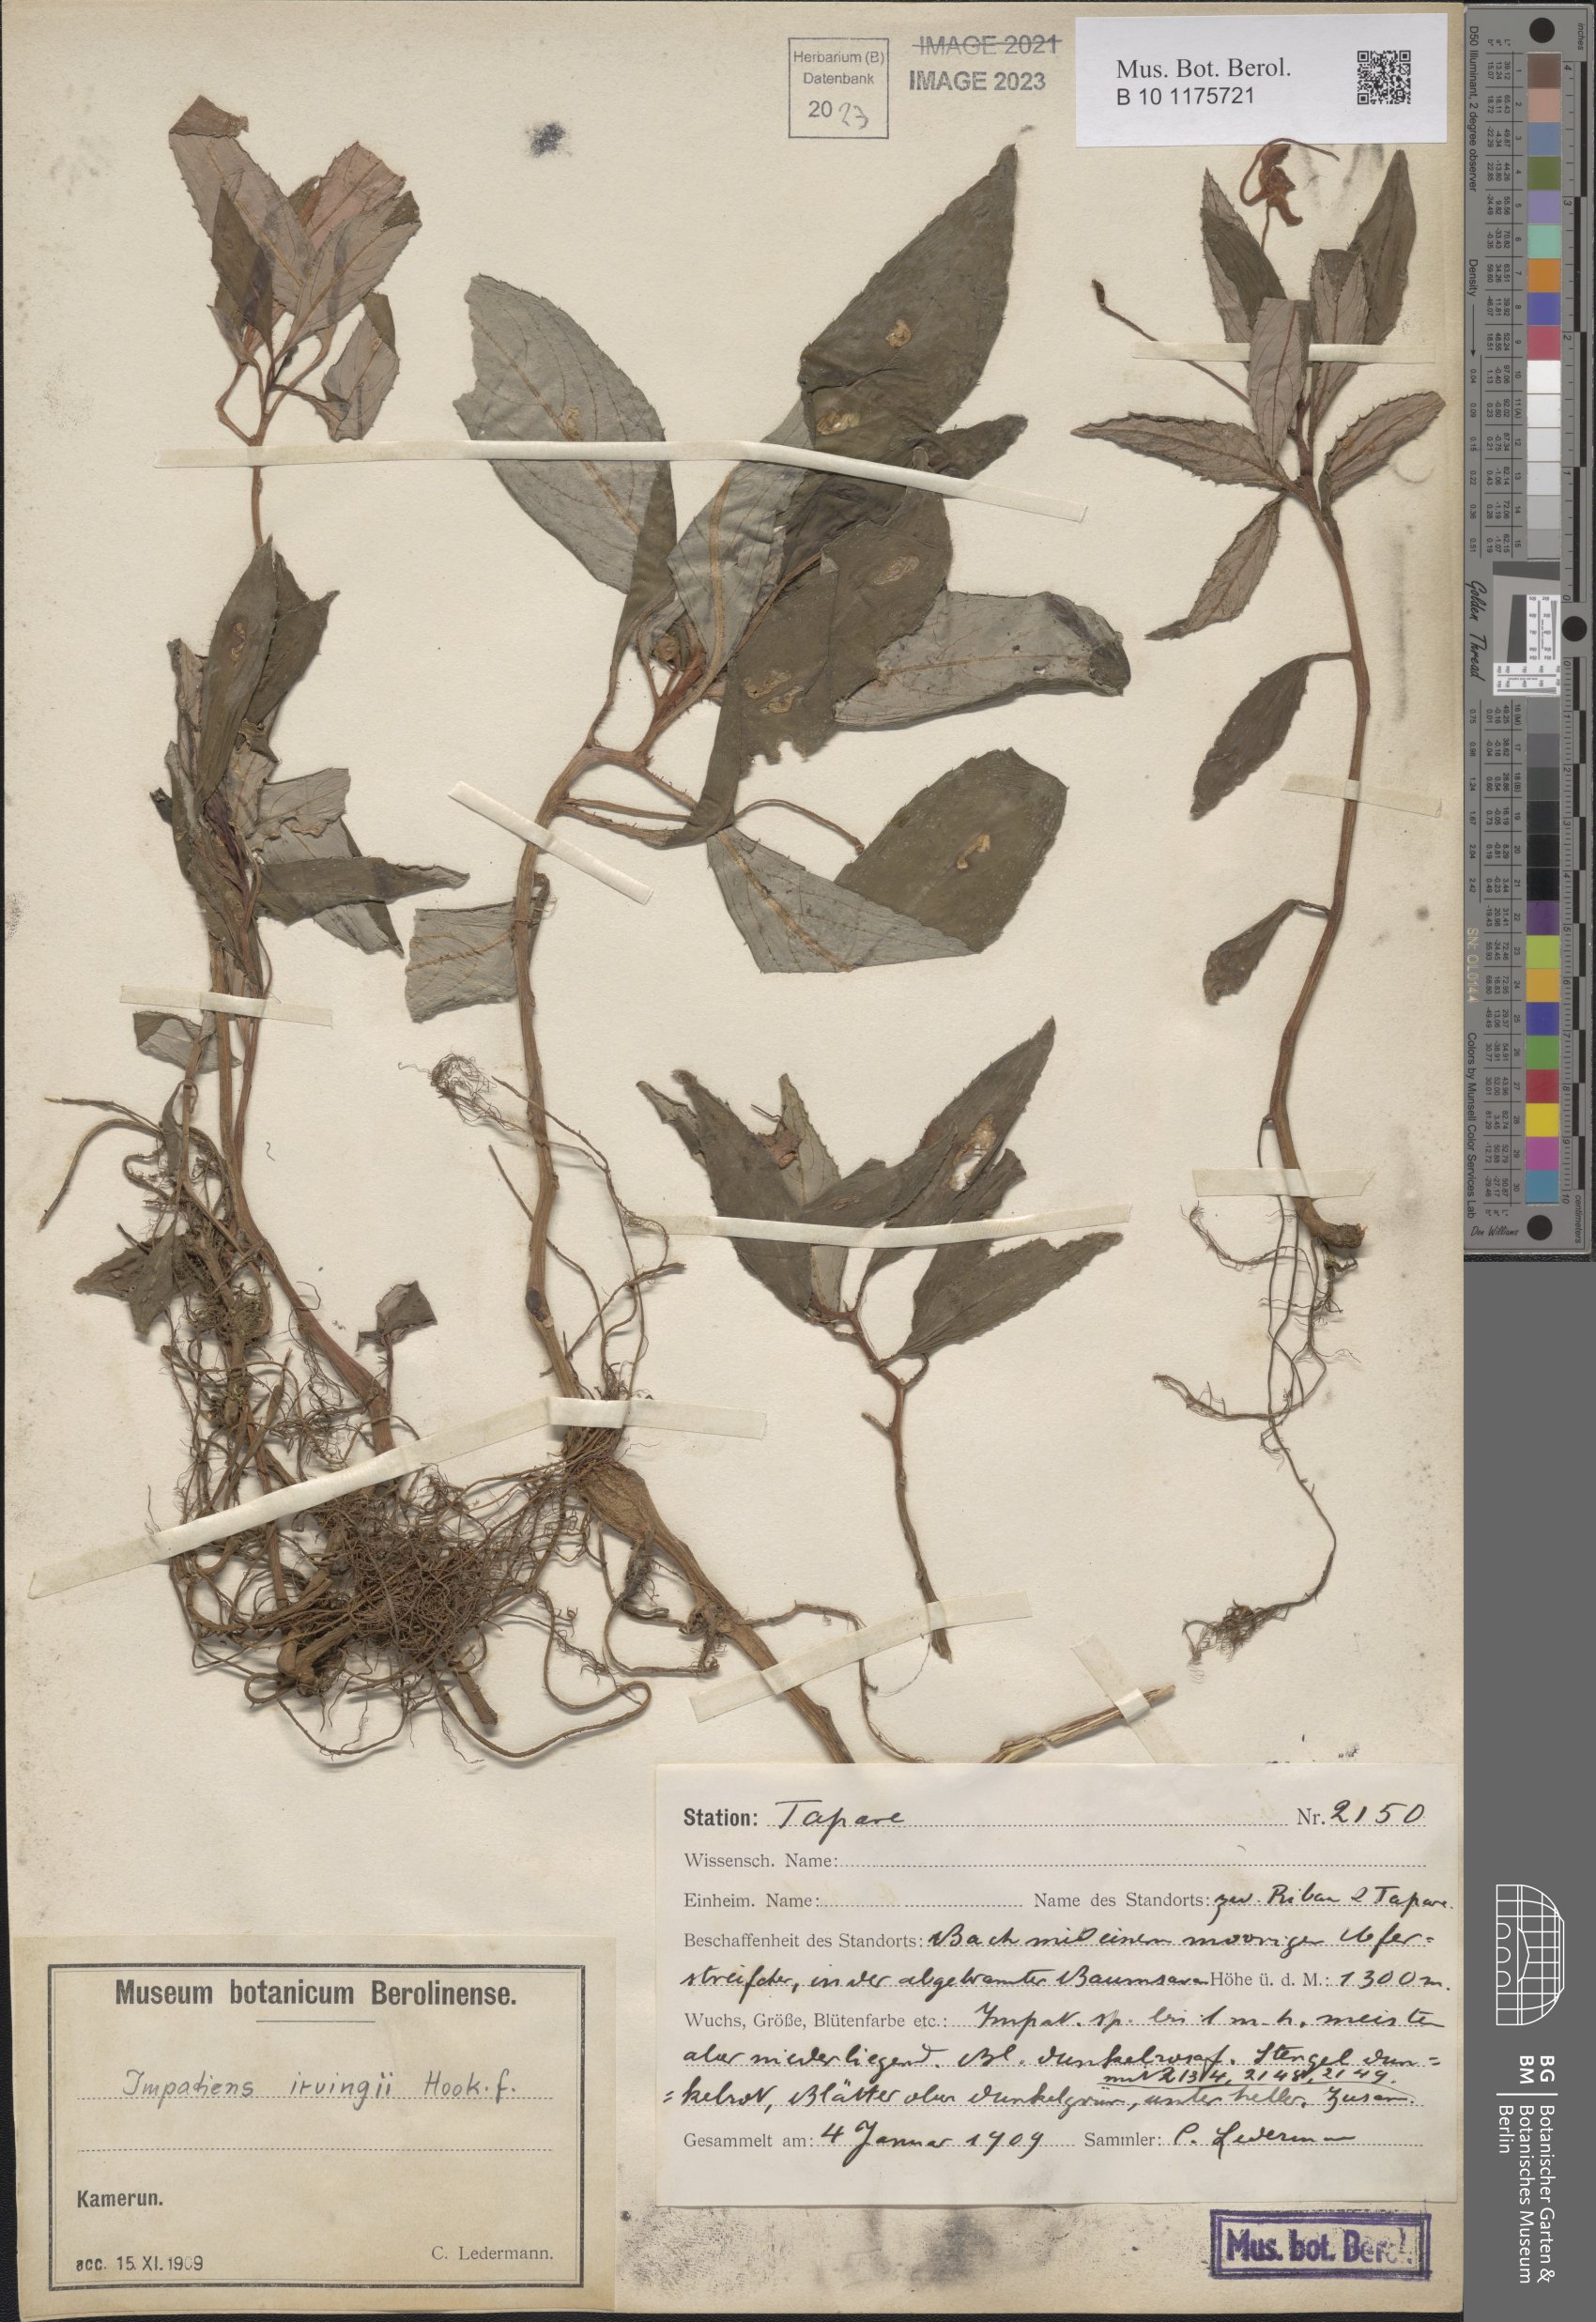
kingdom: Plantae
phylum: Tracheophyta
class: Magnoliopsida
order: Ericales
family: Balsaminaceae
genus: Impatiens
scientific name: Impatiens irvingii
